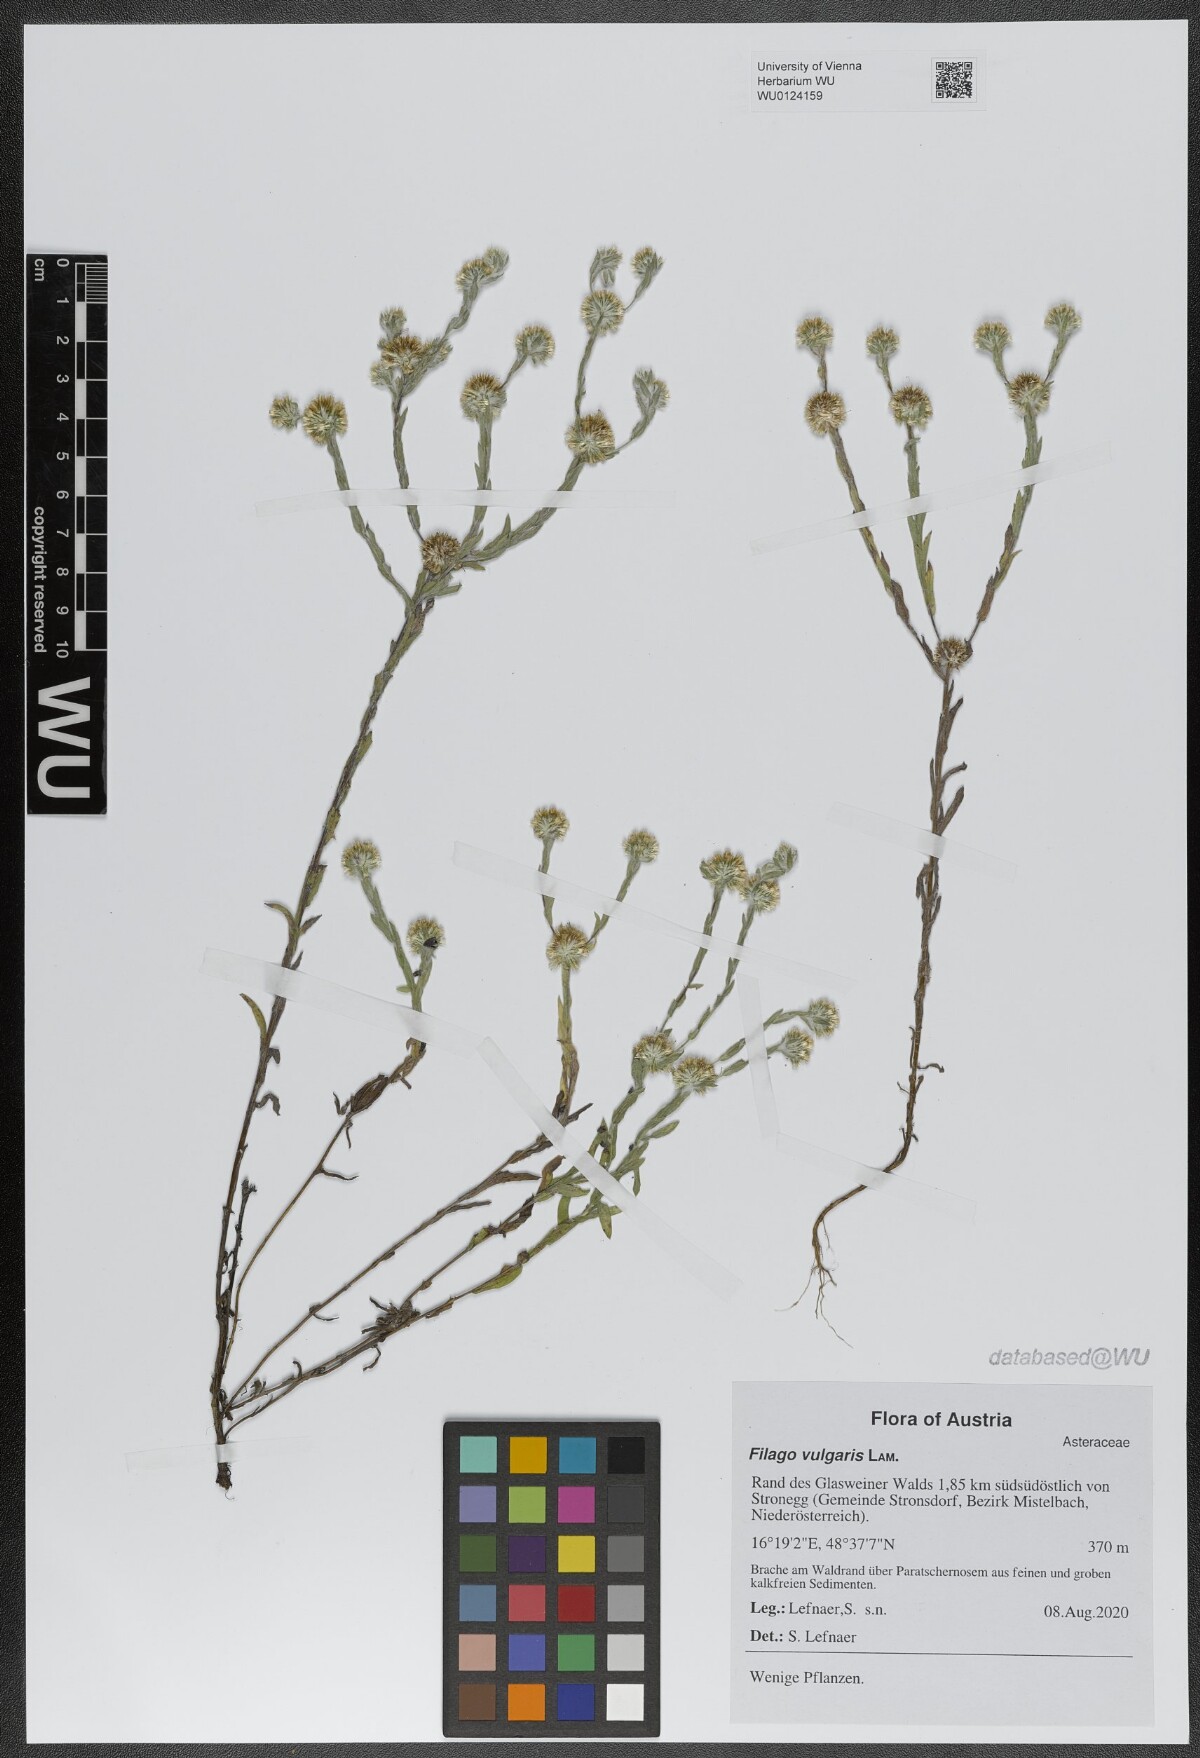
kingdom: Plantae
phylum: Tracheophyta
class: Magnoliopsida
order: Asterales
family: Asteraceae
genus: Filago
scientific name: Filago germanica
